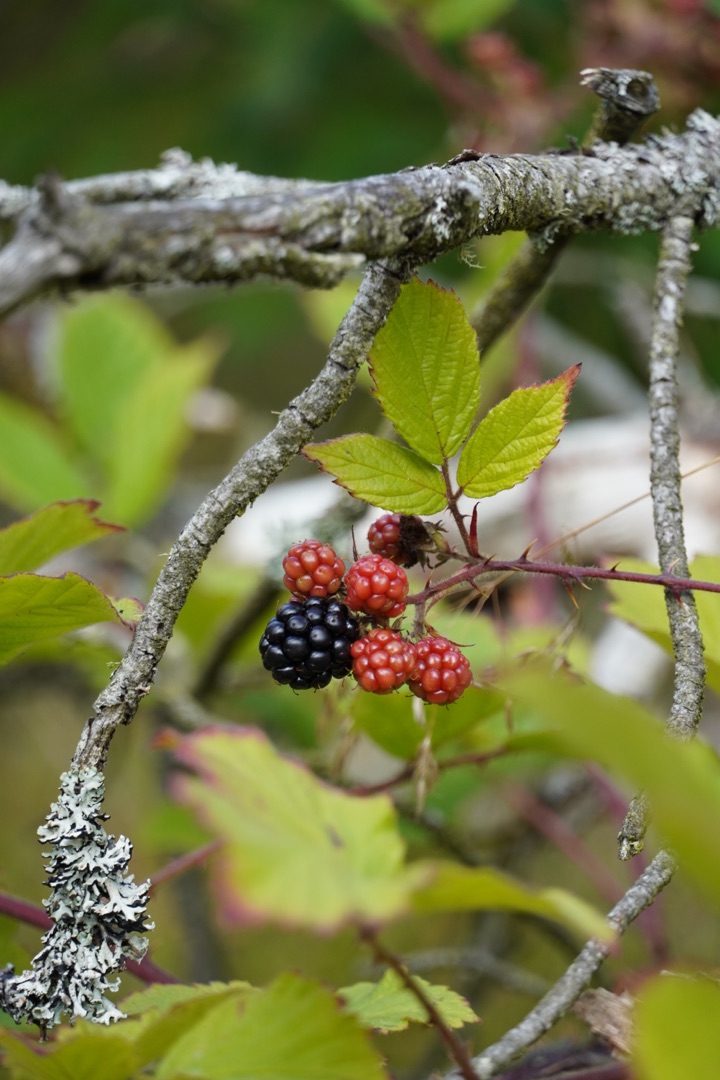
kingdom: Plantae
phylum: Tracheophyta
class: Magnoliopsida
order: Rosales
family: Rosaceae
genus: Rubus
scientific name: Rubus
